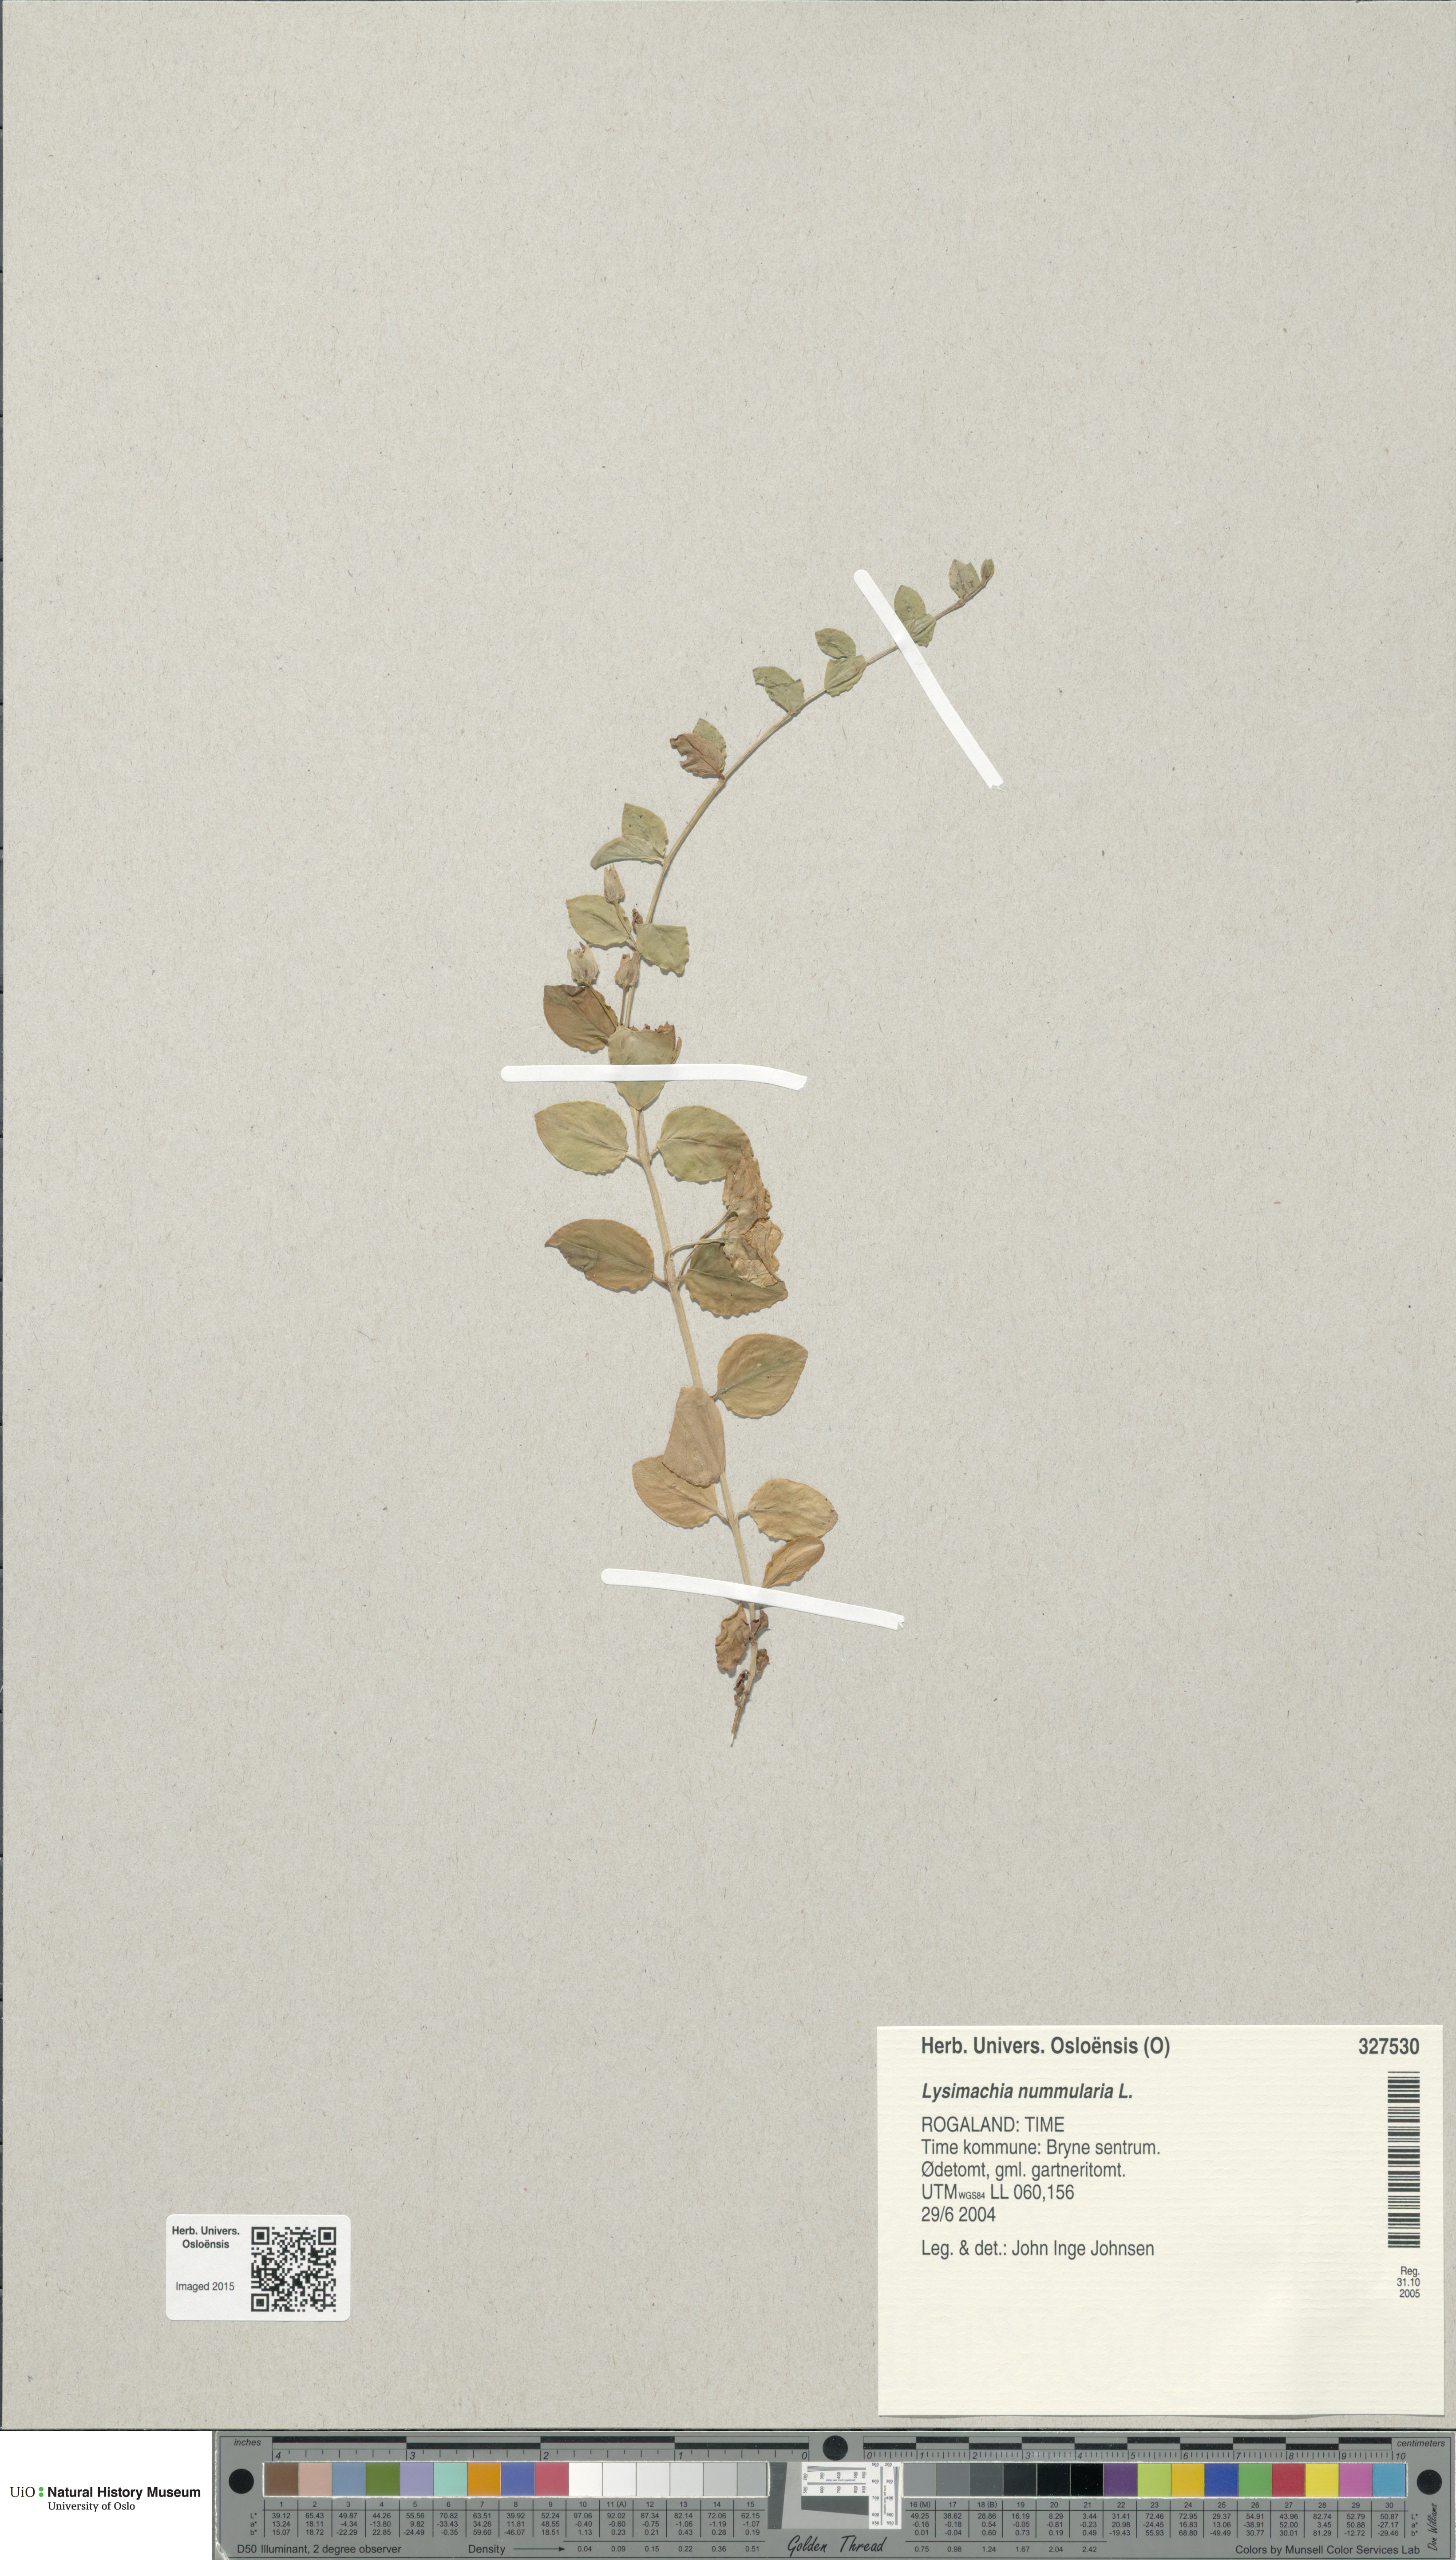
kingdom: Plantae
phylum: Tracheophyta
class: Magnoliopsida
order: Ericales
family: Primulaceae
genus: Lysimachia
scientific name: Lysimachia nummularia
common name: Moneywort
